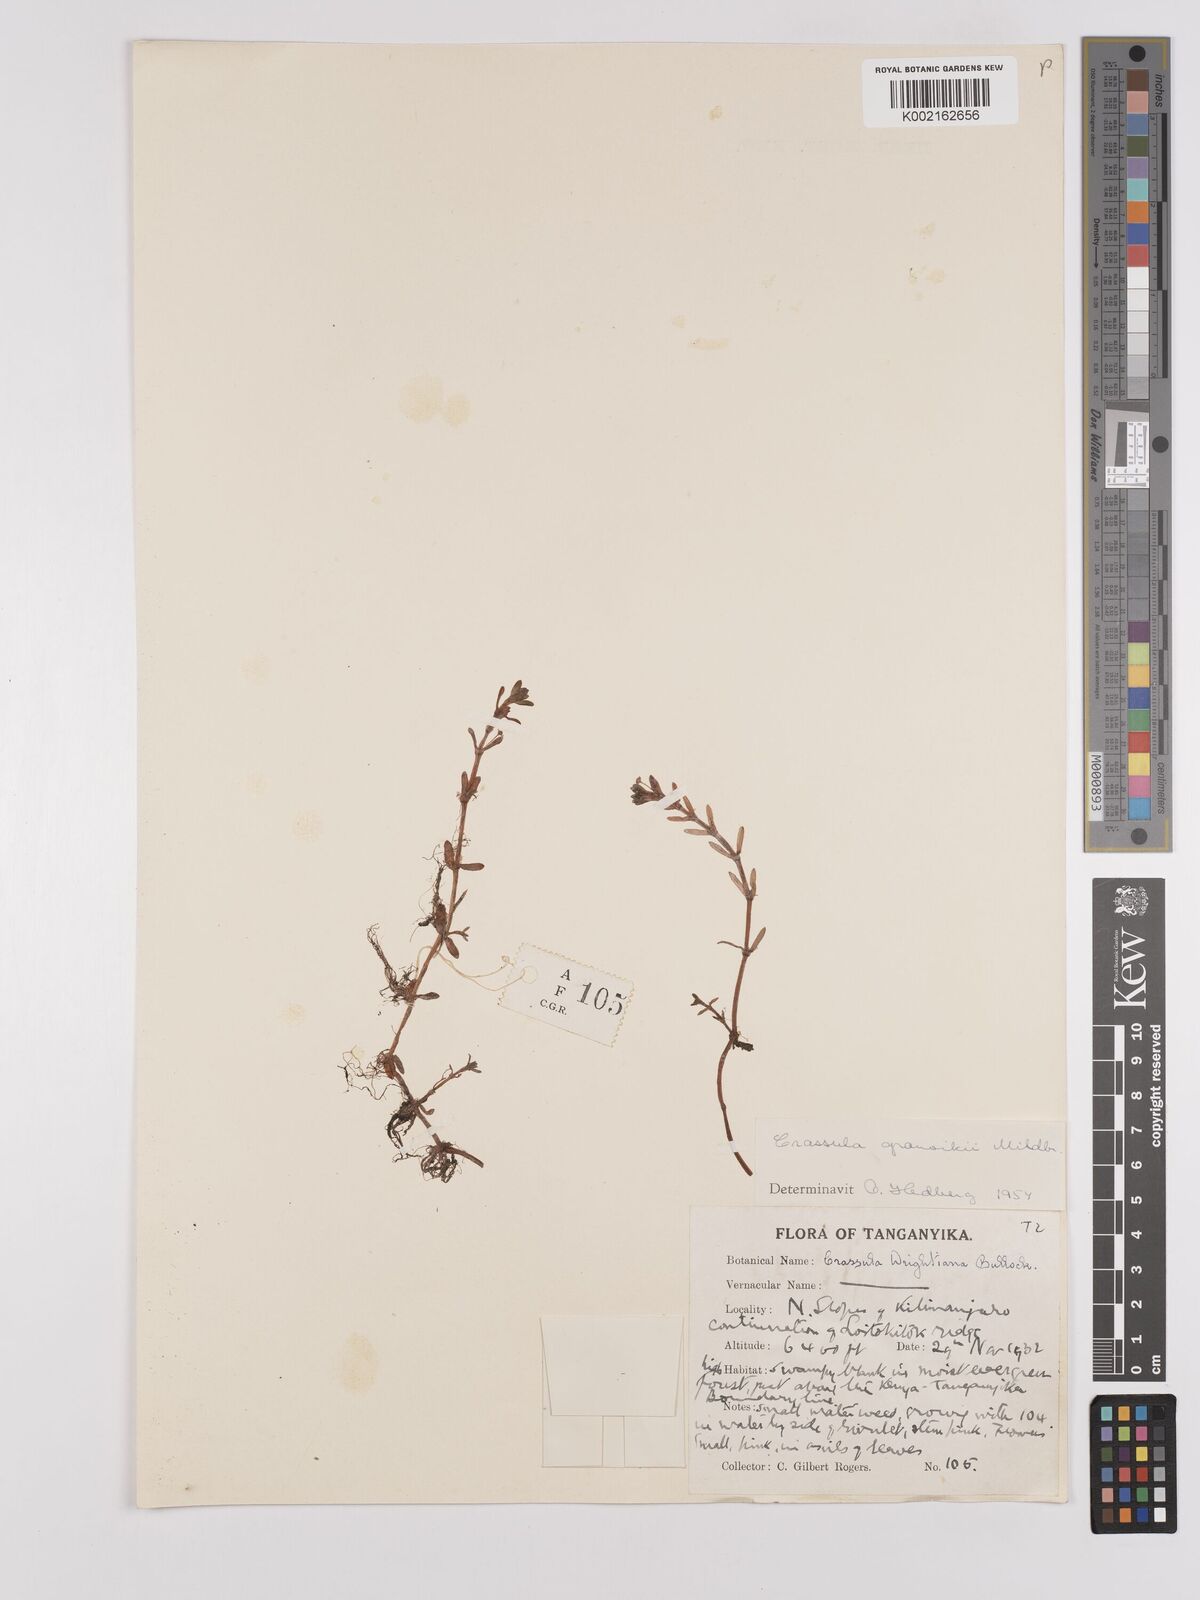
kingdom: Plantae
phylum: Tracheophyta
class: Magnoliopsida
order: Saxifragales
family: Crassulaceae
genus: Crassula
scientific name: Crassula granvikii
